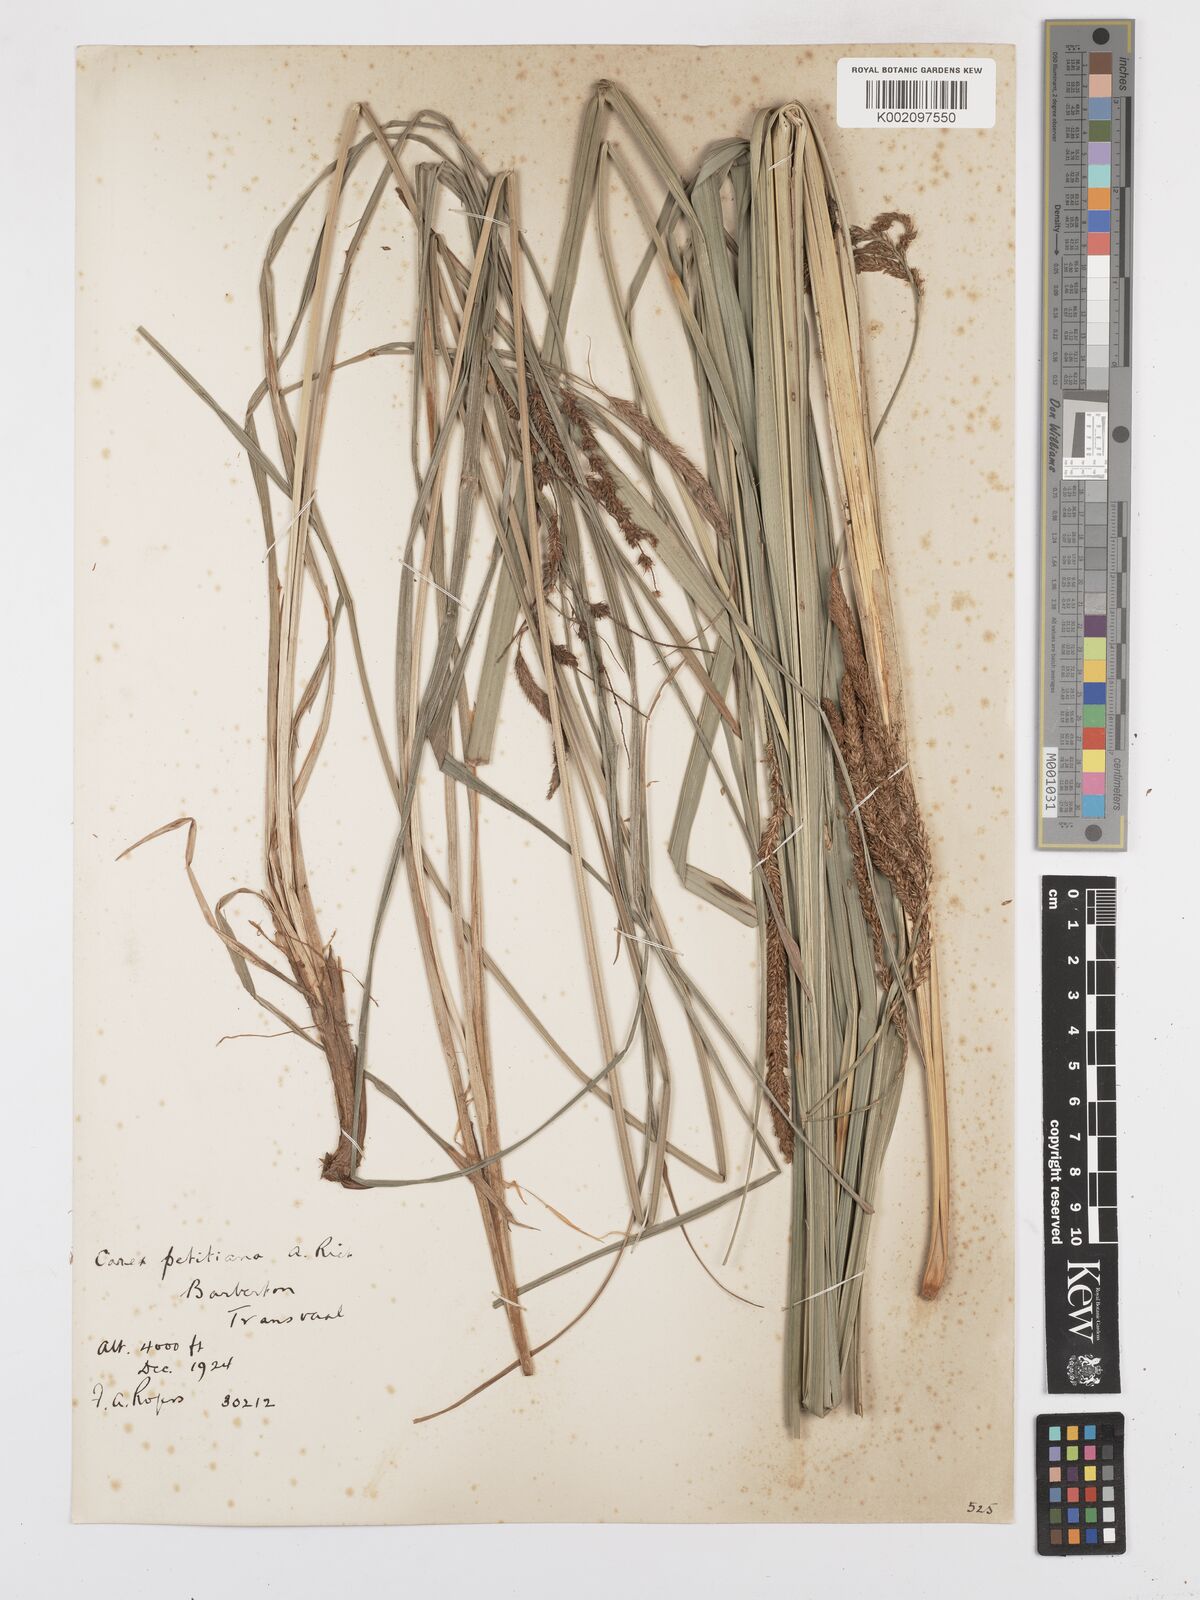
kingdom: Plantae
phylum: Tracheophyta
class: Liliopsida
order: Poales
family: Cyperaceae
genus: Carex
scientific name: Carex petitiana
